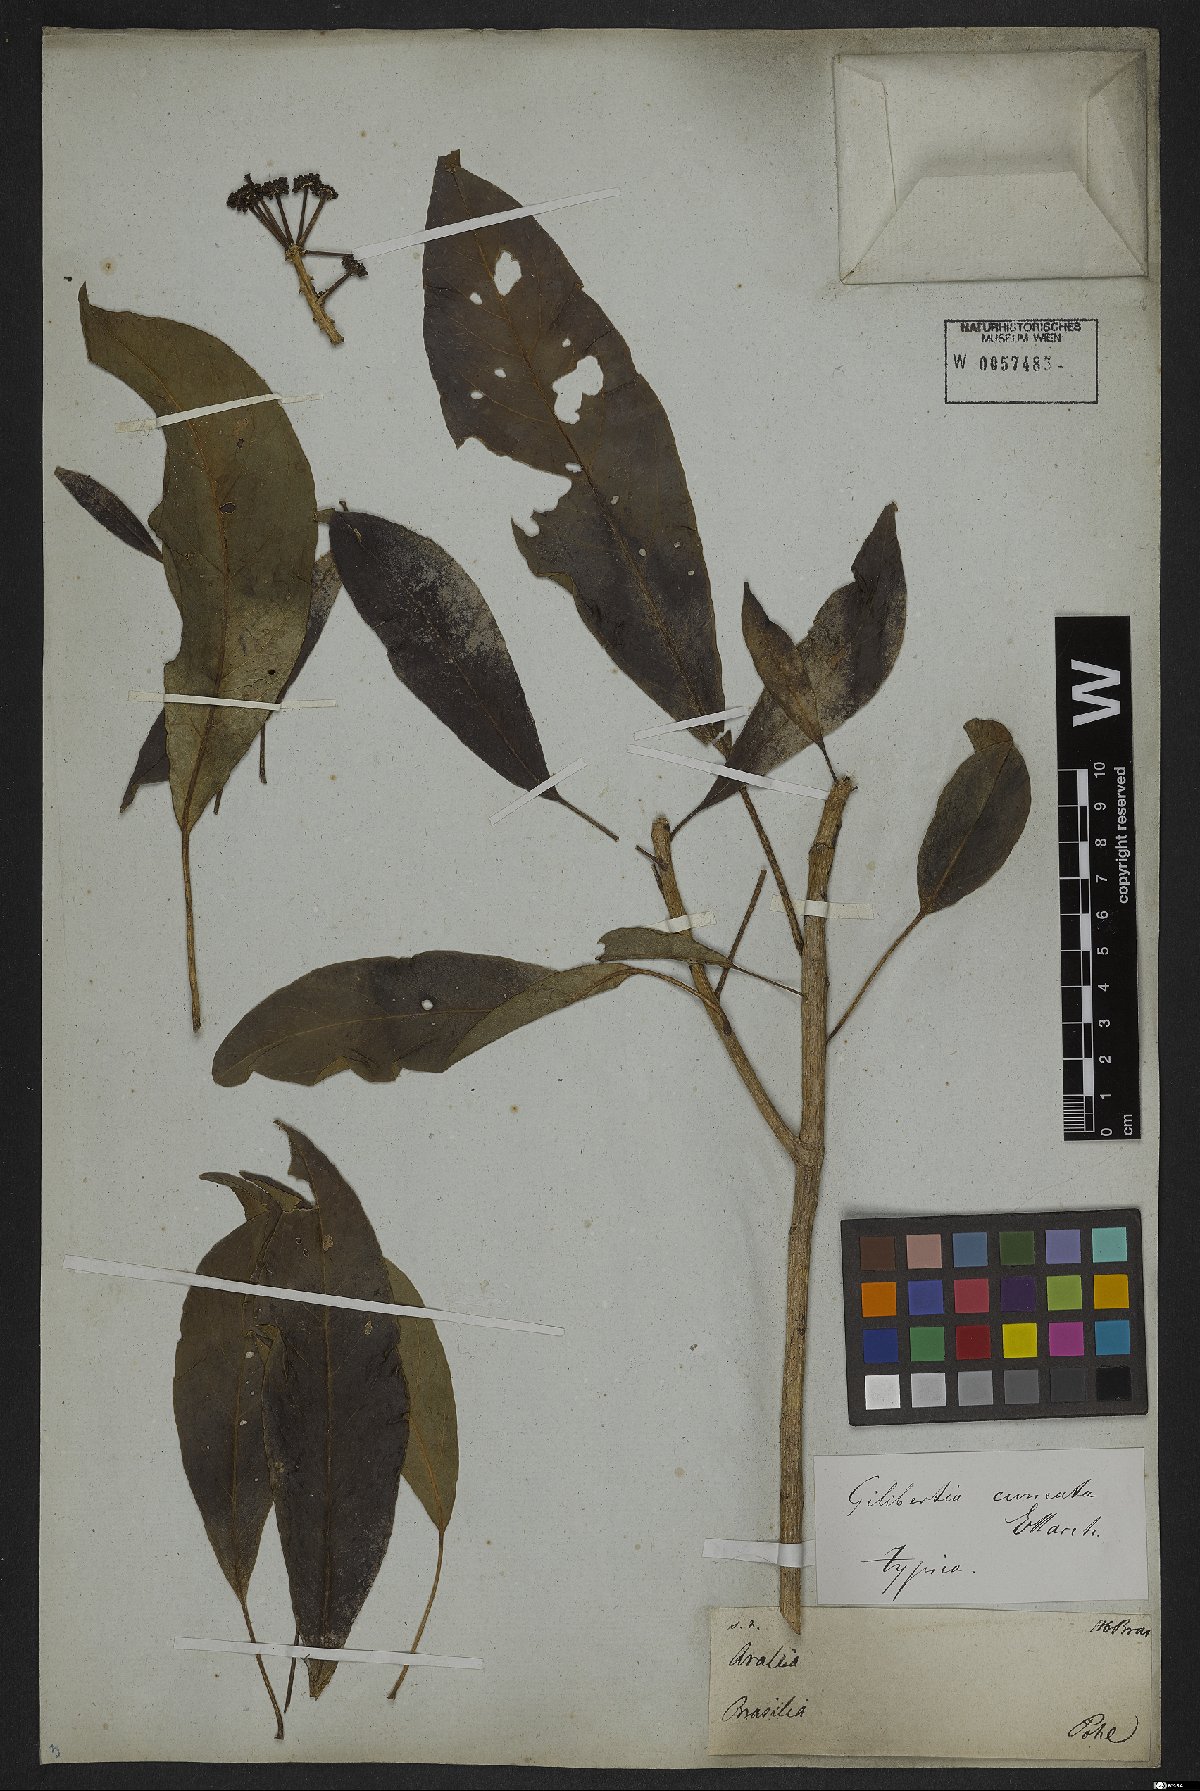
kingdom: Plantae
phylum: Tracheophyta
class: Magnoliopsida
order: Apiales
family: Araliaceae
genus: Dendropanax
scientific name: Dendropanax cuneatus
